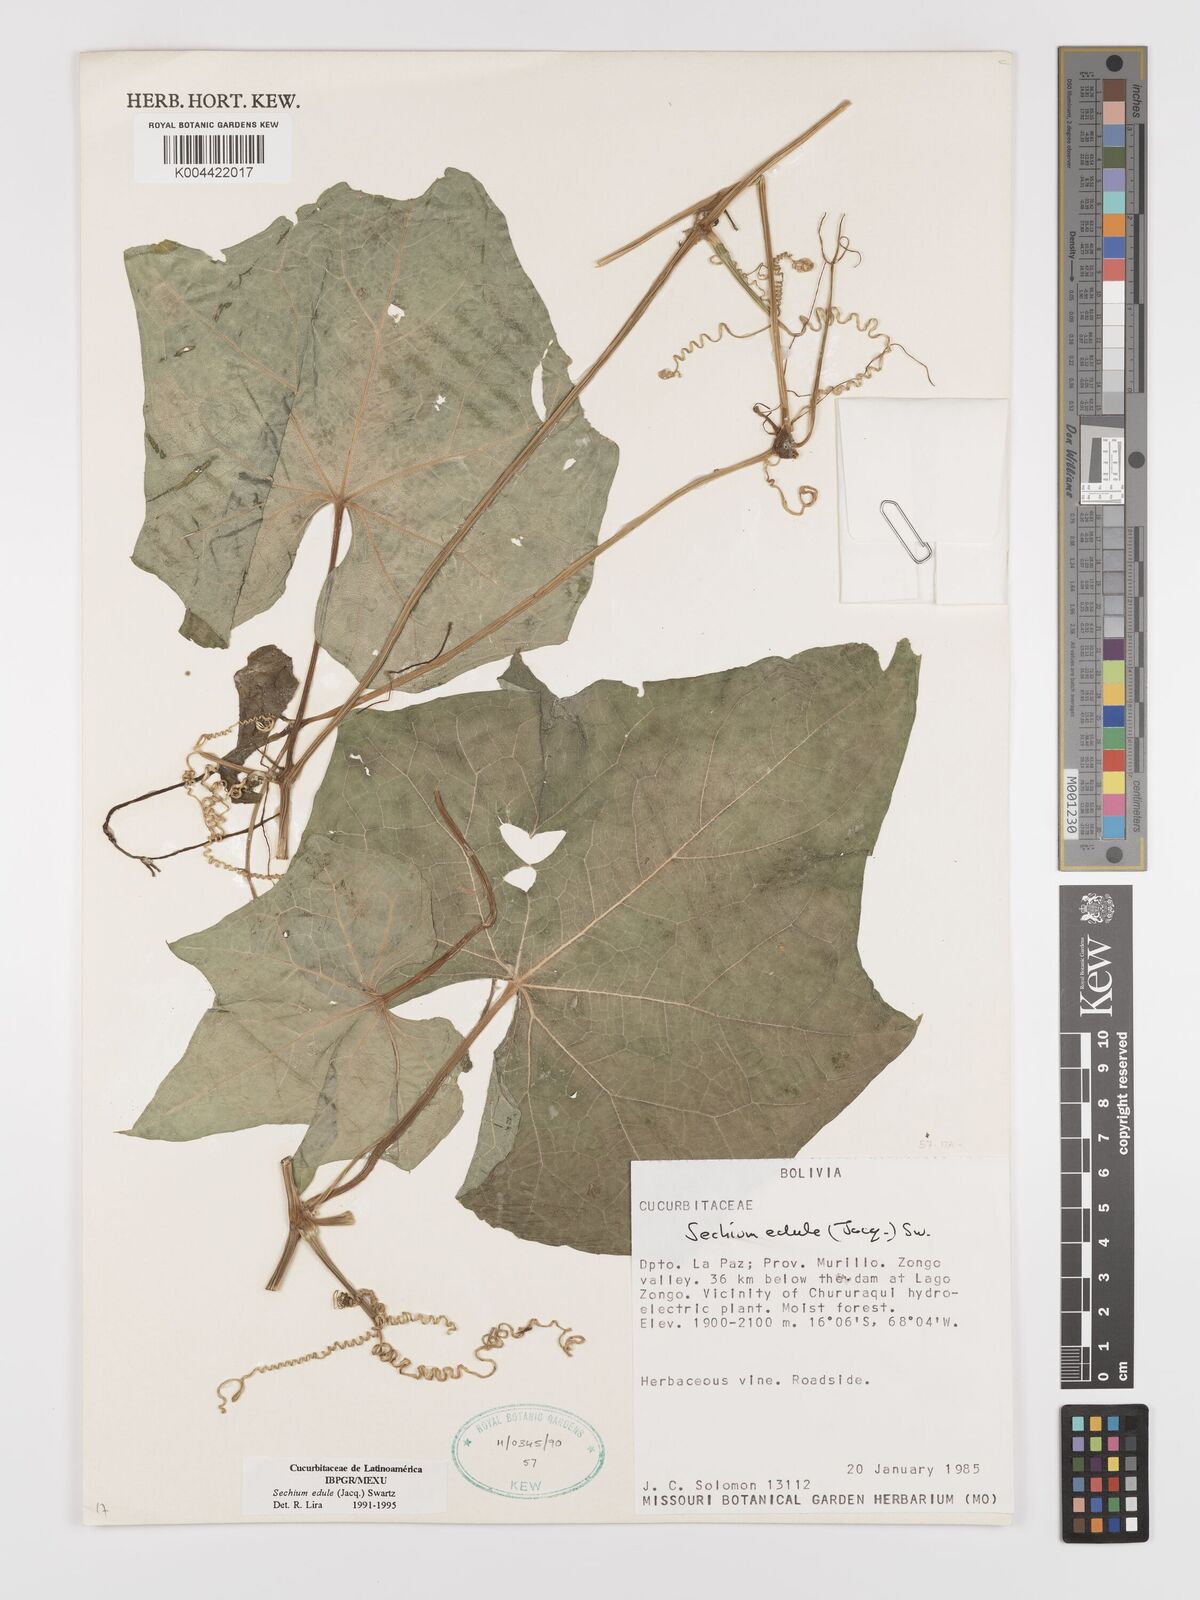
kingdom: Plantae
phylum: Tracheophyta
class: Magnoliopsida
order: Cucurbitales
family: Cucurbitaceae
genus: Sechium
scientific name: Sechium edule
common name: Chayote
